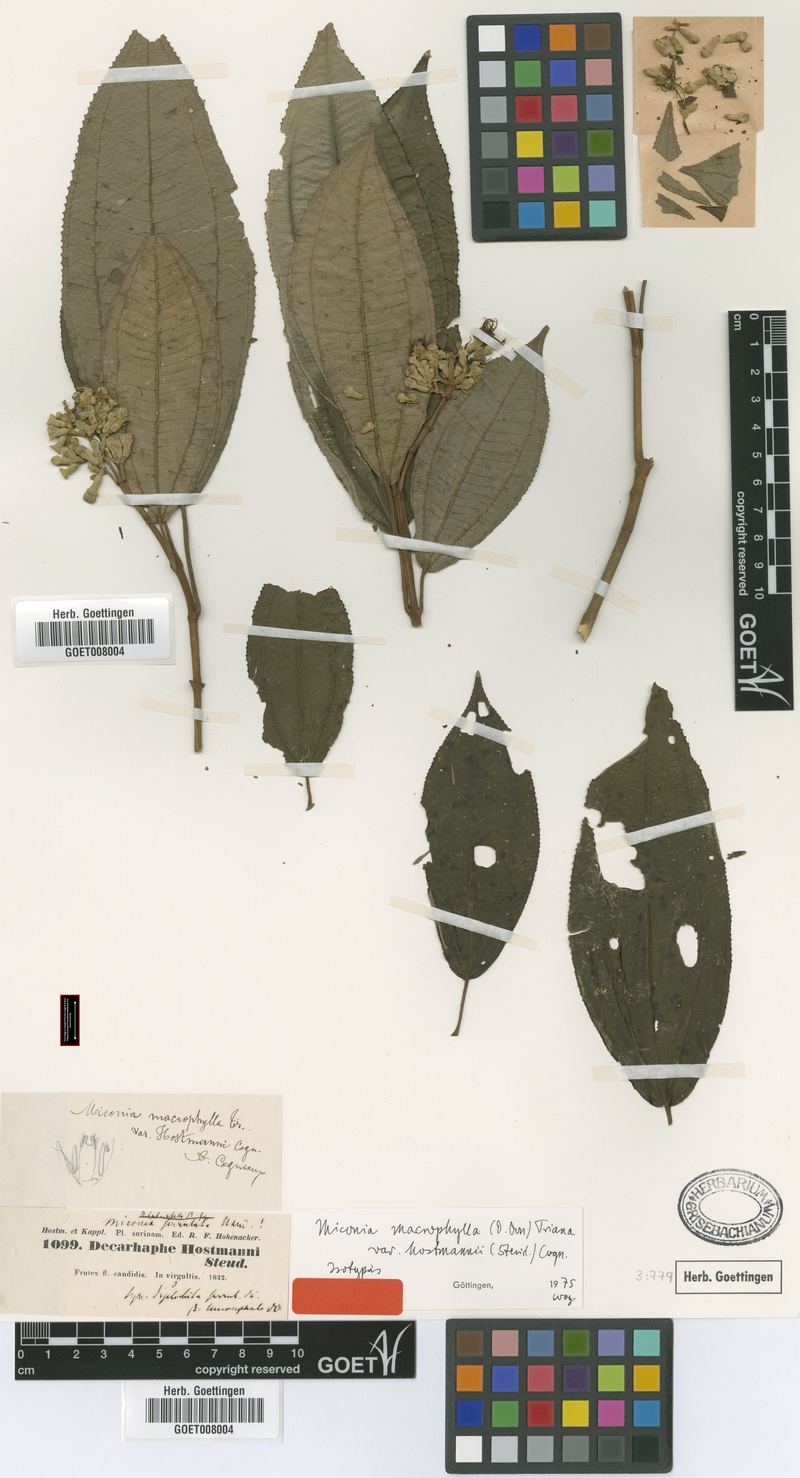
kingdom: Plantae
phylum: Tracheophyta
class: Magnoliopsida
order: Myrtales
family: Melastomataceae
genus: Miconia
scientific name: Miconia serrulata
